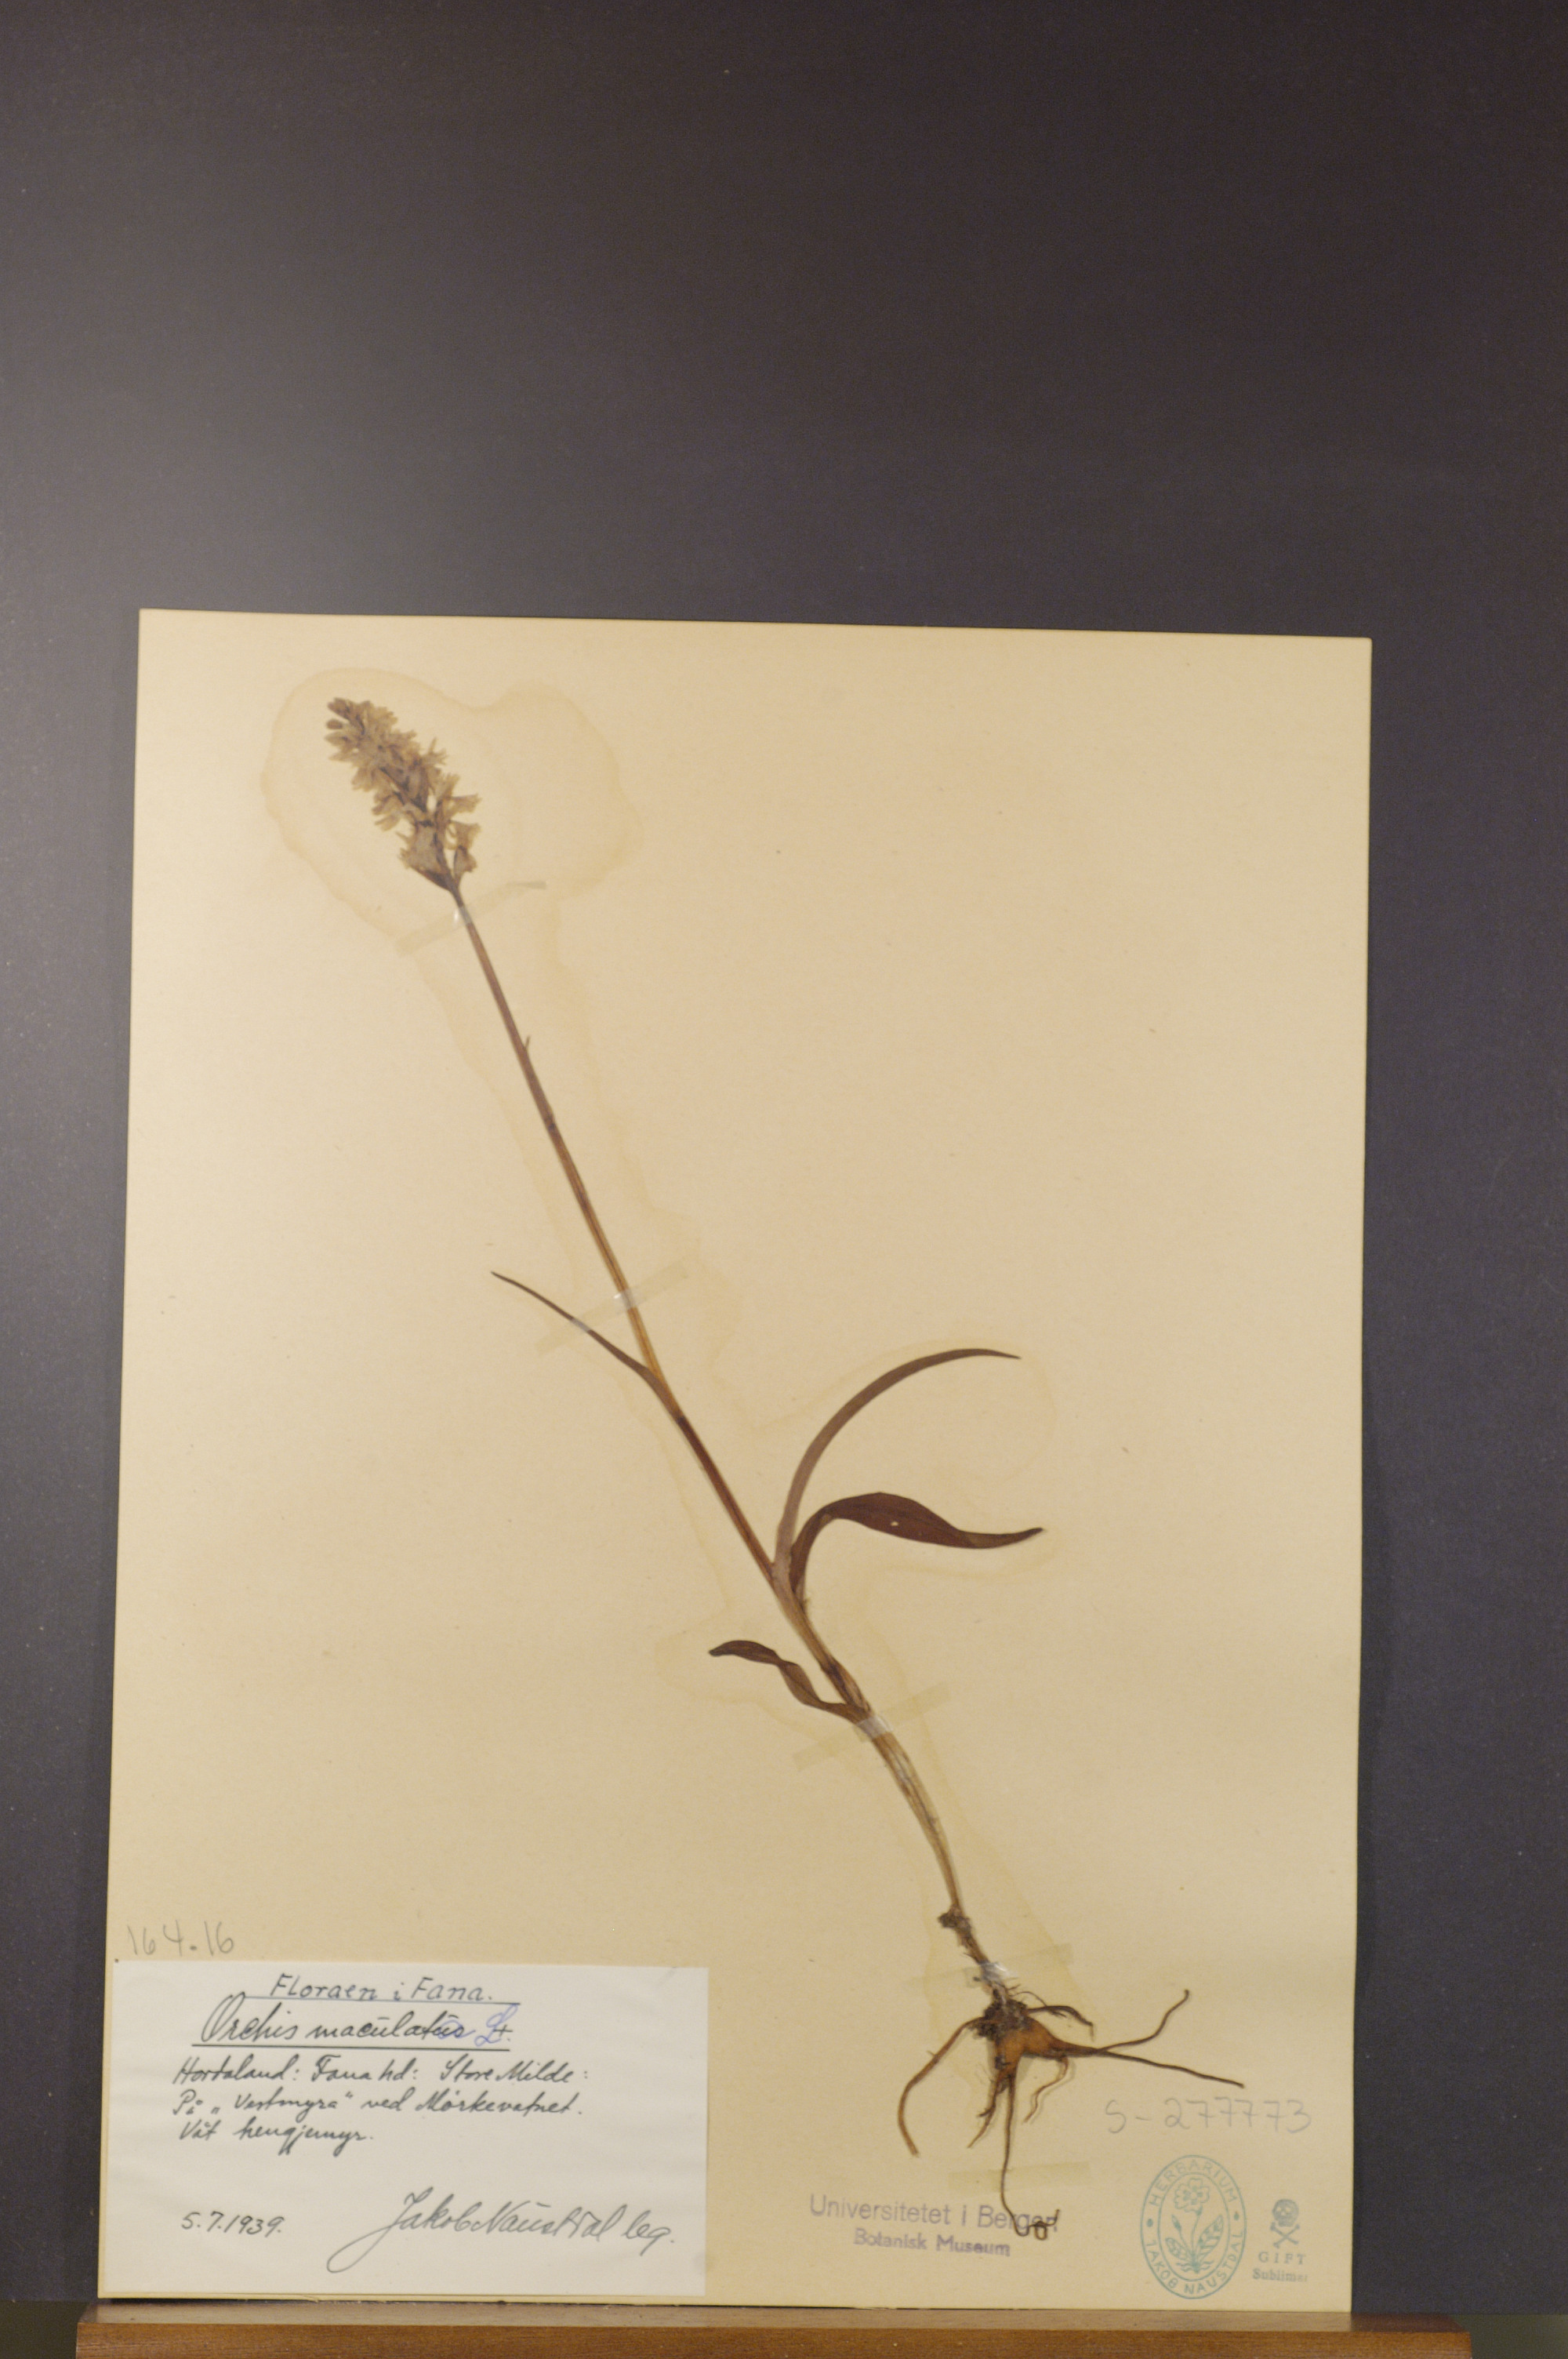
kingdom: Plantae
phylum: Tracheophyta
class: Liliopsida
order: Asparagales
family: Orchidaceae
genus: Dactylorhiza
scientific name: Dactylorhiza maculata
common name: Heath spotted-orchid
